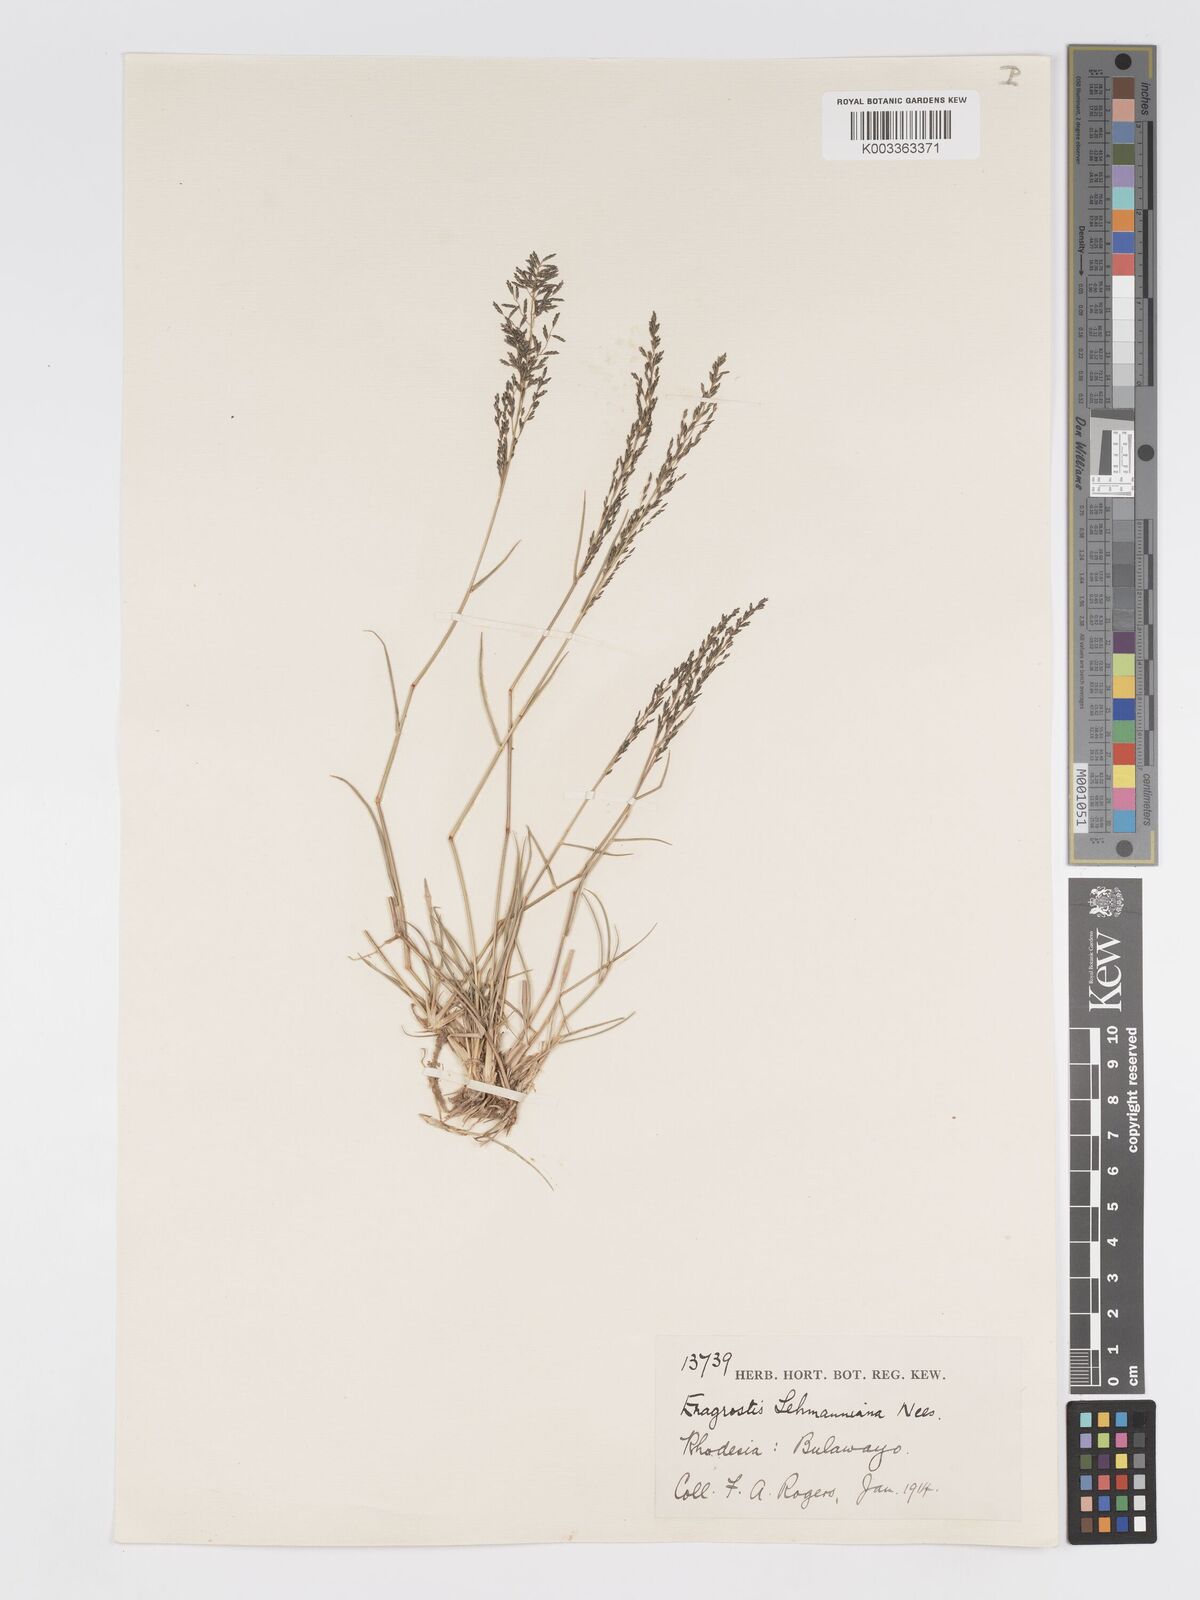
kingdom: Plantae
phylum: Tracheophyta
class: Liliopsida
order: Poales
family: Poaceae
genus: Eragrostis
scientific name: Eragrostis lehmanniana
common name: Lehmann lovegrass
